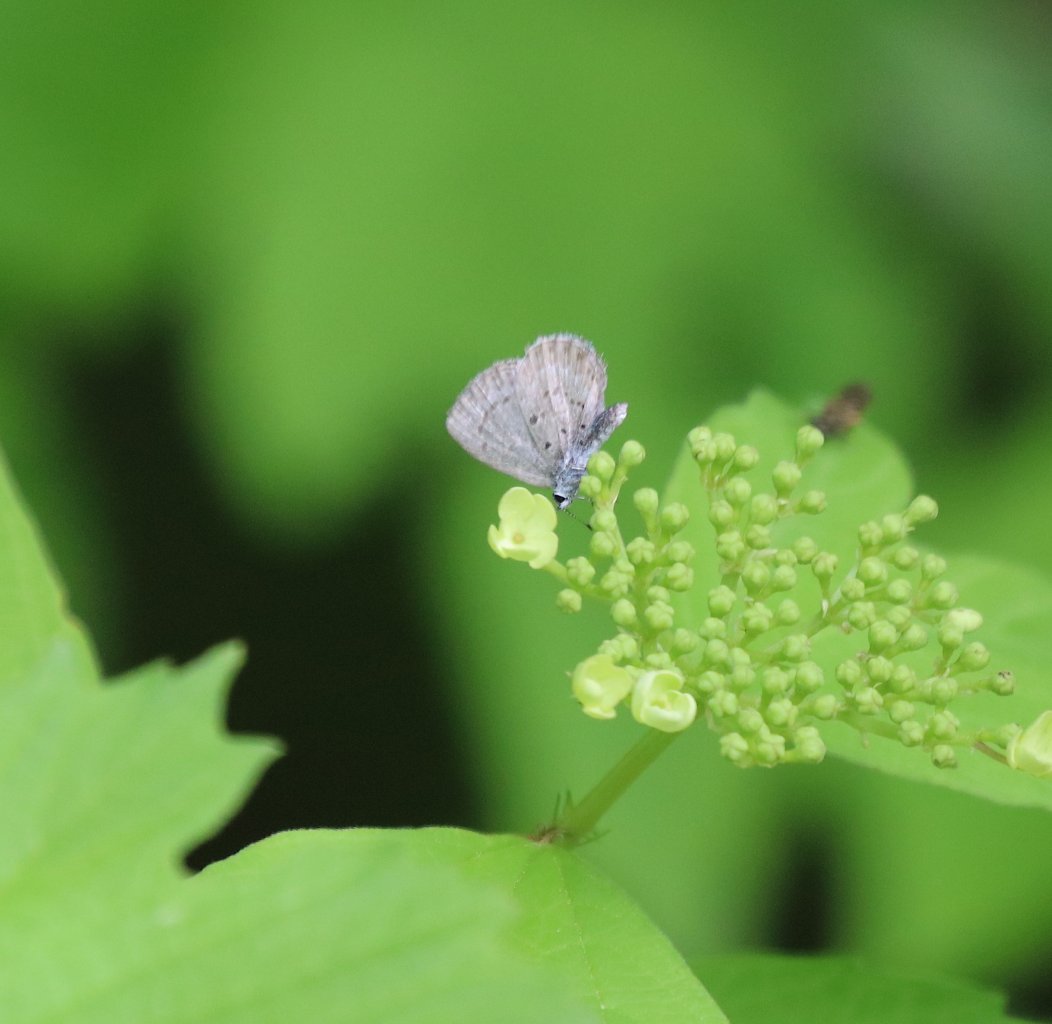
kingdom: Animalia
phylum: Arthropoda
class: Insecta
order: Lepidoptera
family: Lycaenidae
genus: Celastrina
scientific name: Celastrina ladon
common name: Spring Azure
